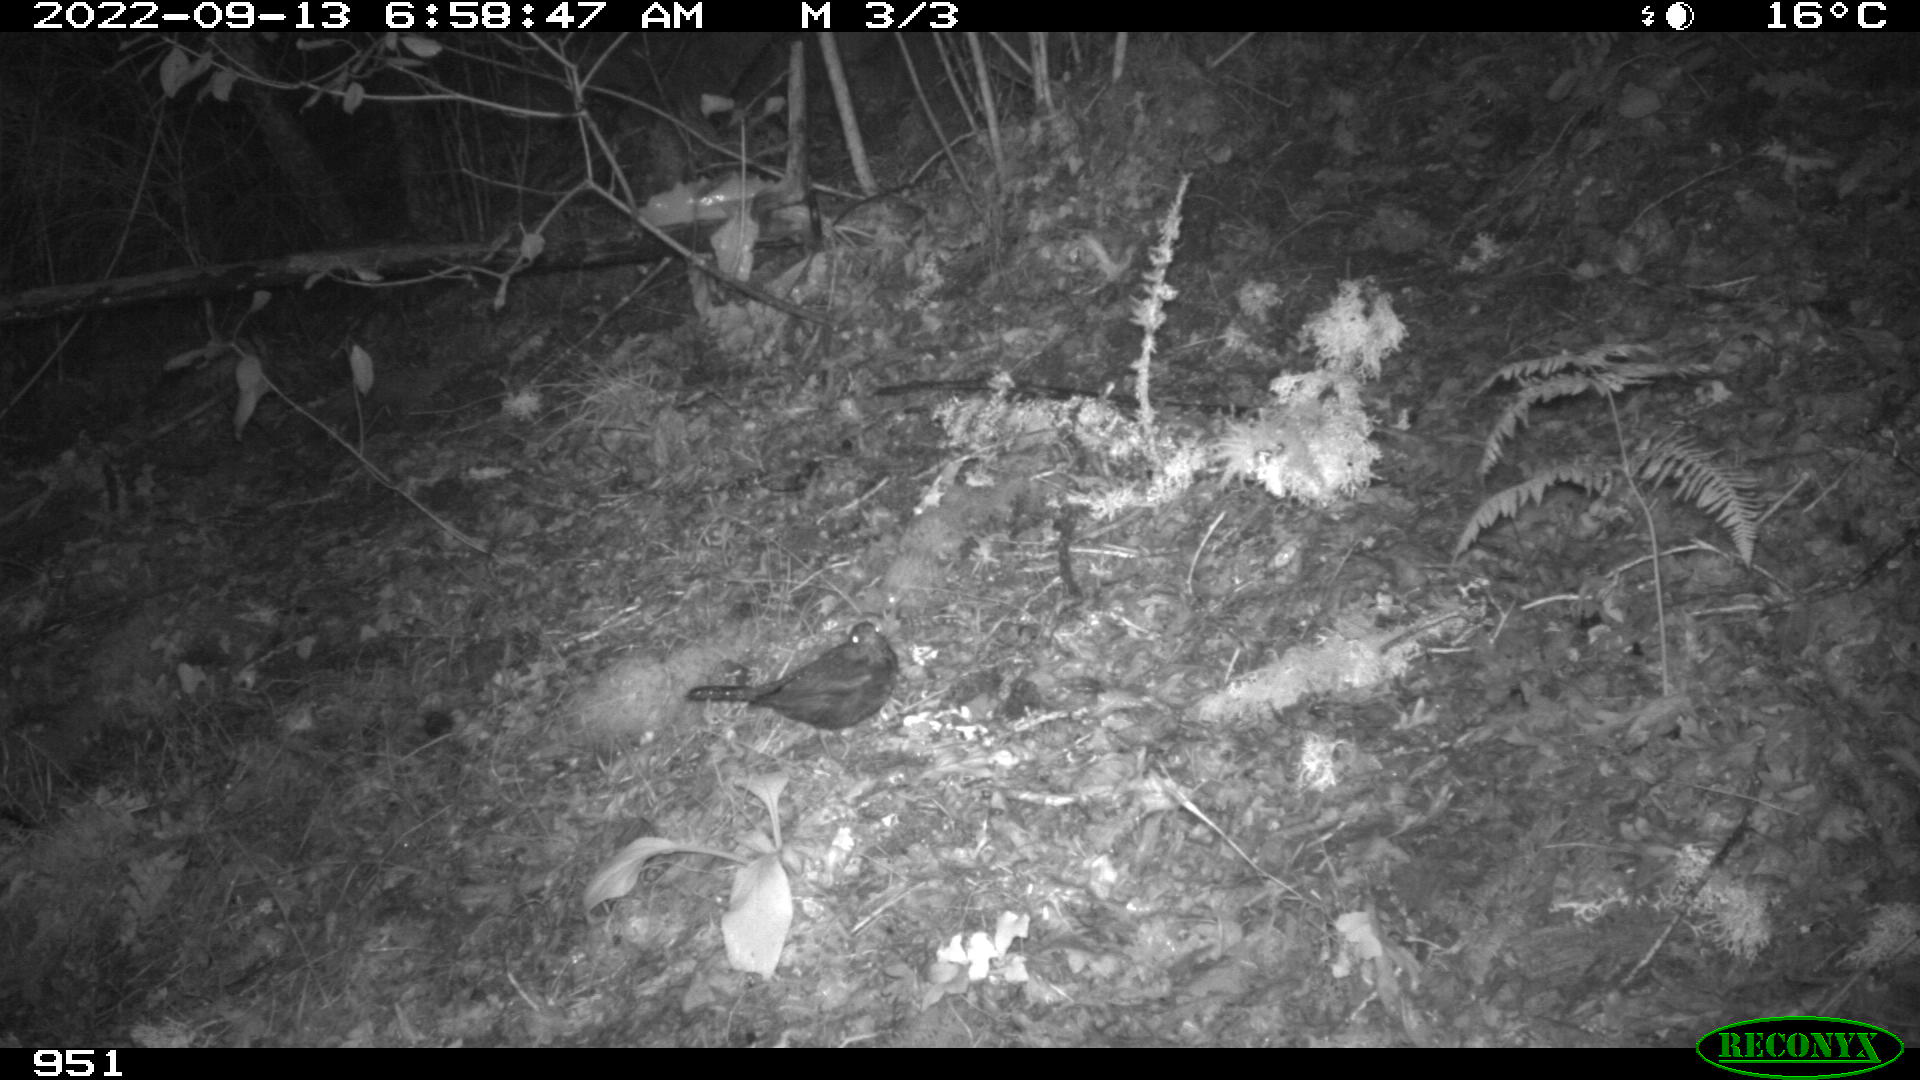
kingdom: Animalia
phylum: Chordata
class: Aves
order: Passeriformes
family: Turdidae
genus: Turdus
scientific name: Turdus merula
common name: Common blackbird
